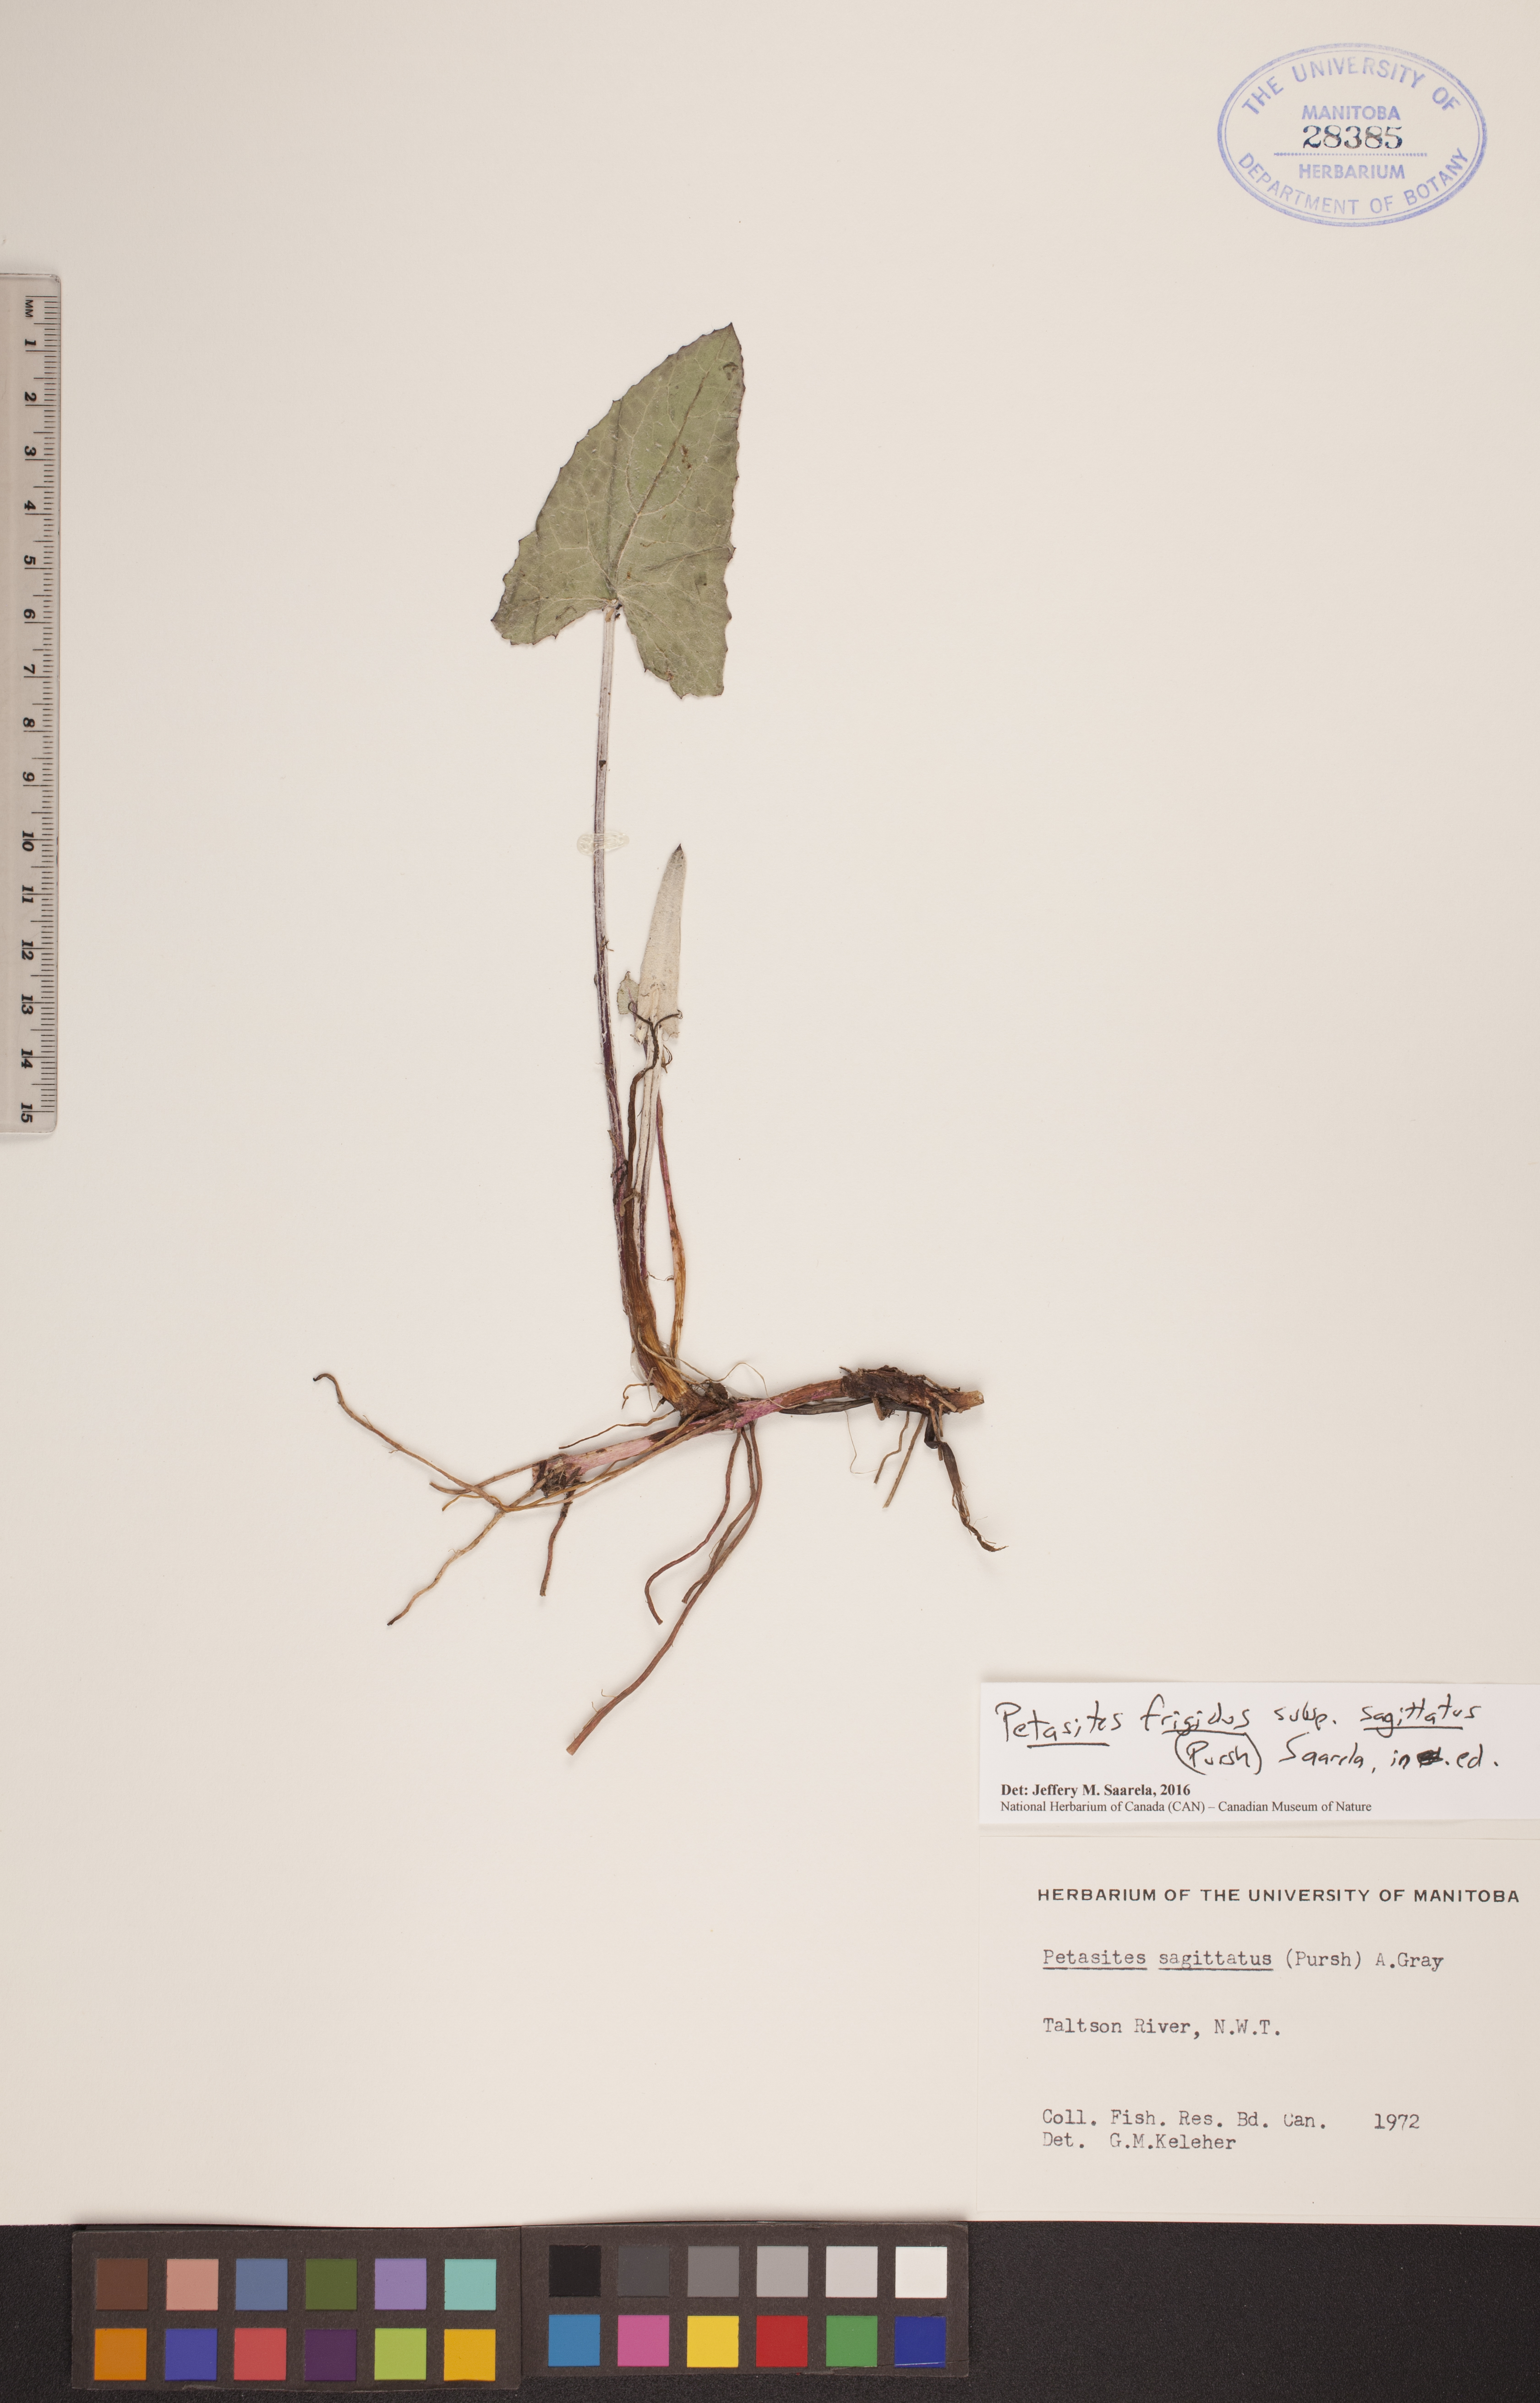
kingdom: Plantae
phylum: Tracheophyta
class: Magnoliopsida
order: Asterales
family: Asteraceae
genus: Petasites
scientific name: Petasites frigidus
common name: Arctic butterbur
